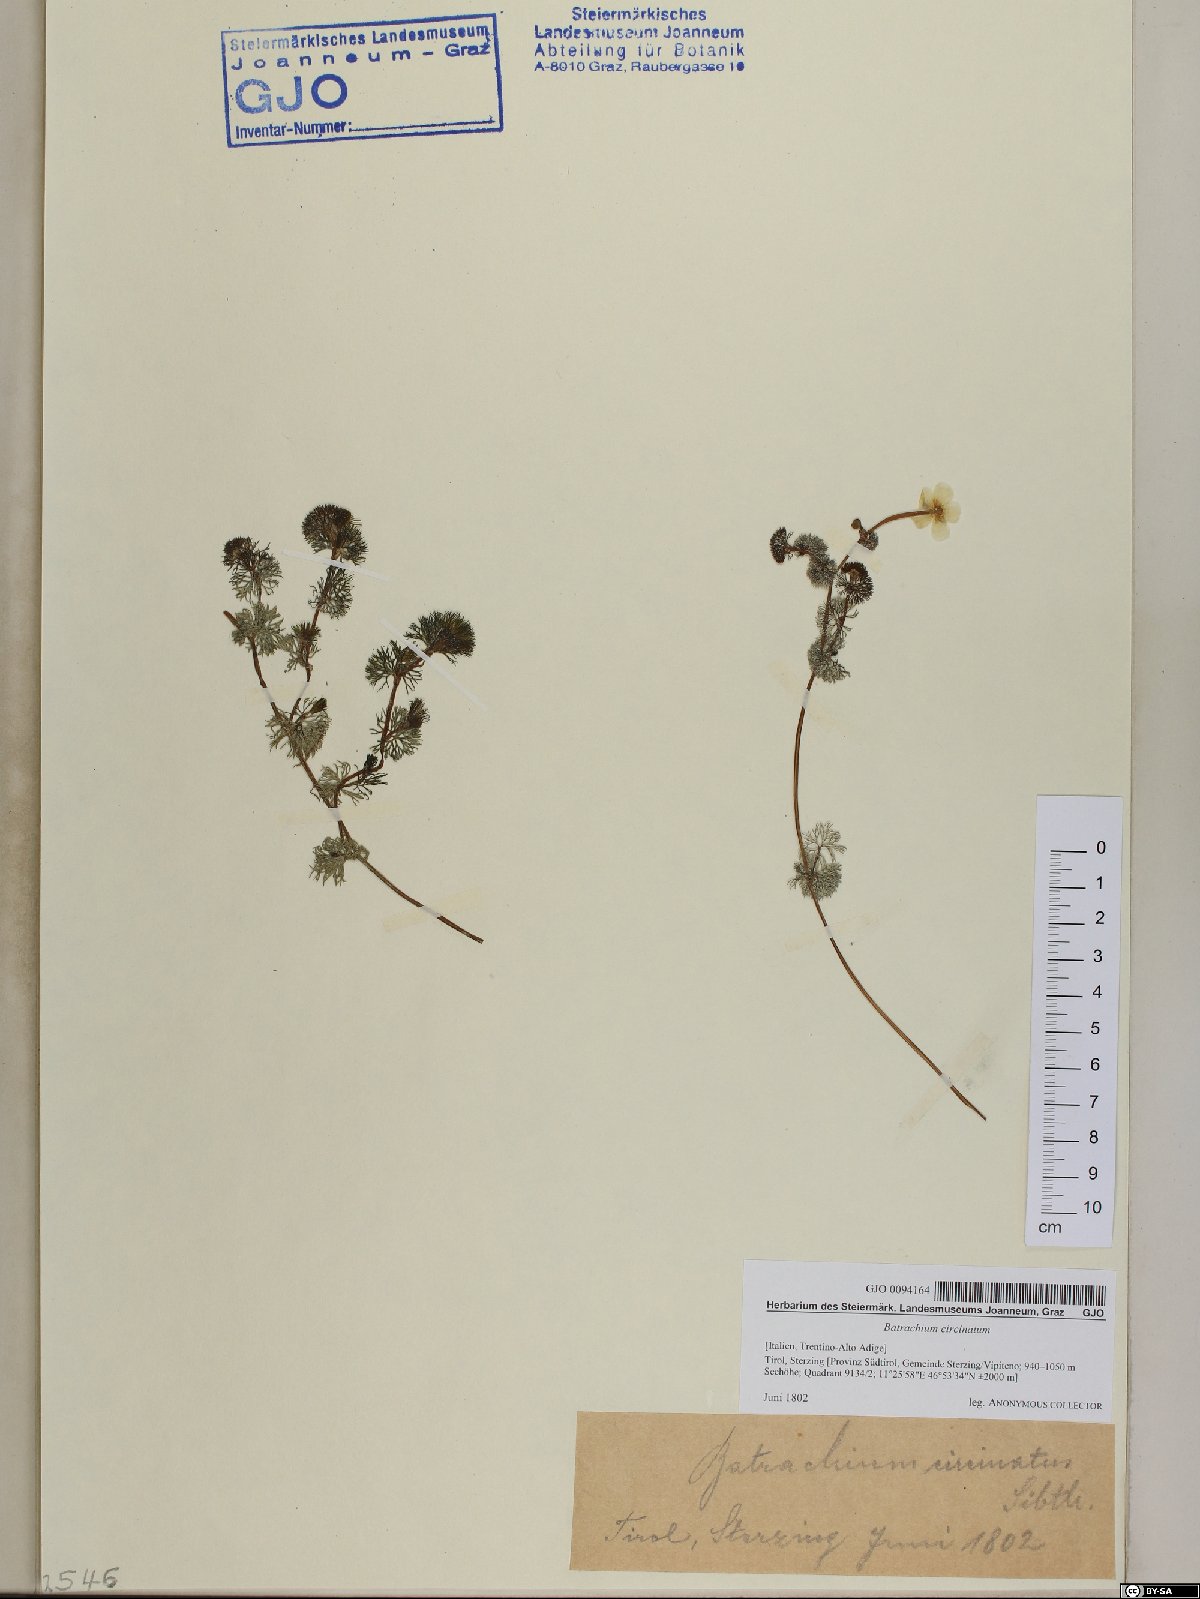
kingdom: Plantae
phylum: Tracheophyta
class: Magnoliopsida
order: Ranunculales
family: Ranunculaceae
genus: Ranunculus
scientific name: Ranunculus circinatus
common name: Fan-leaved water-crowfoot
